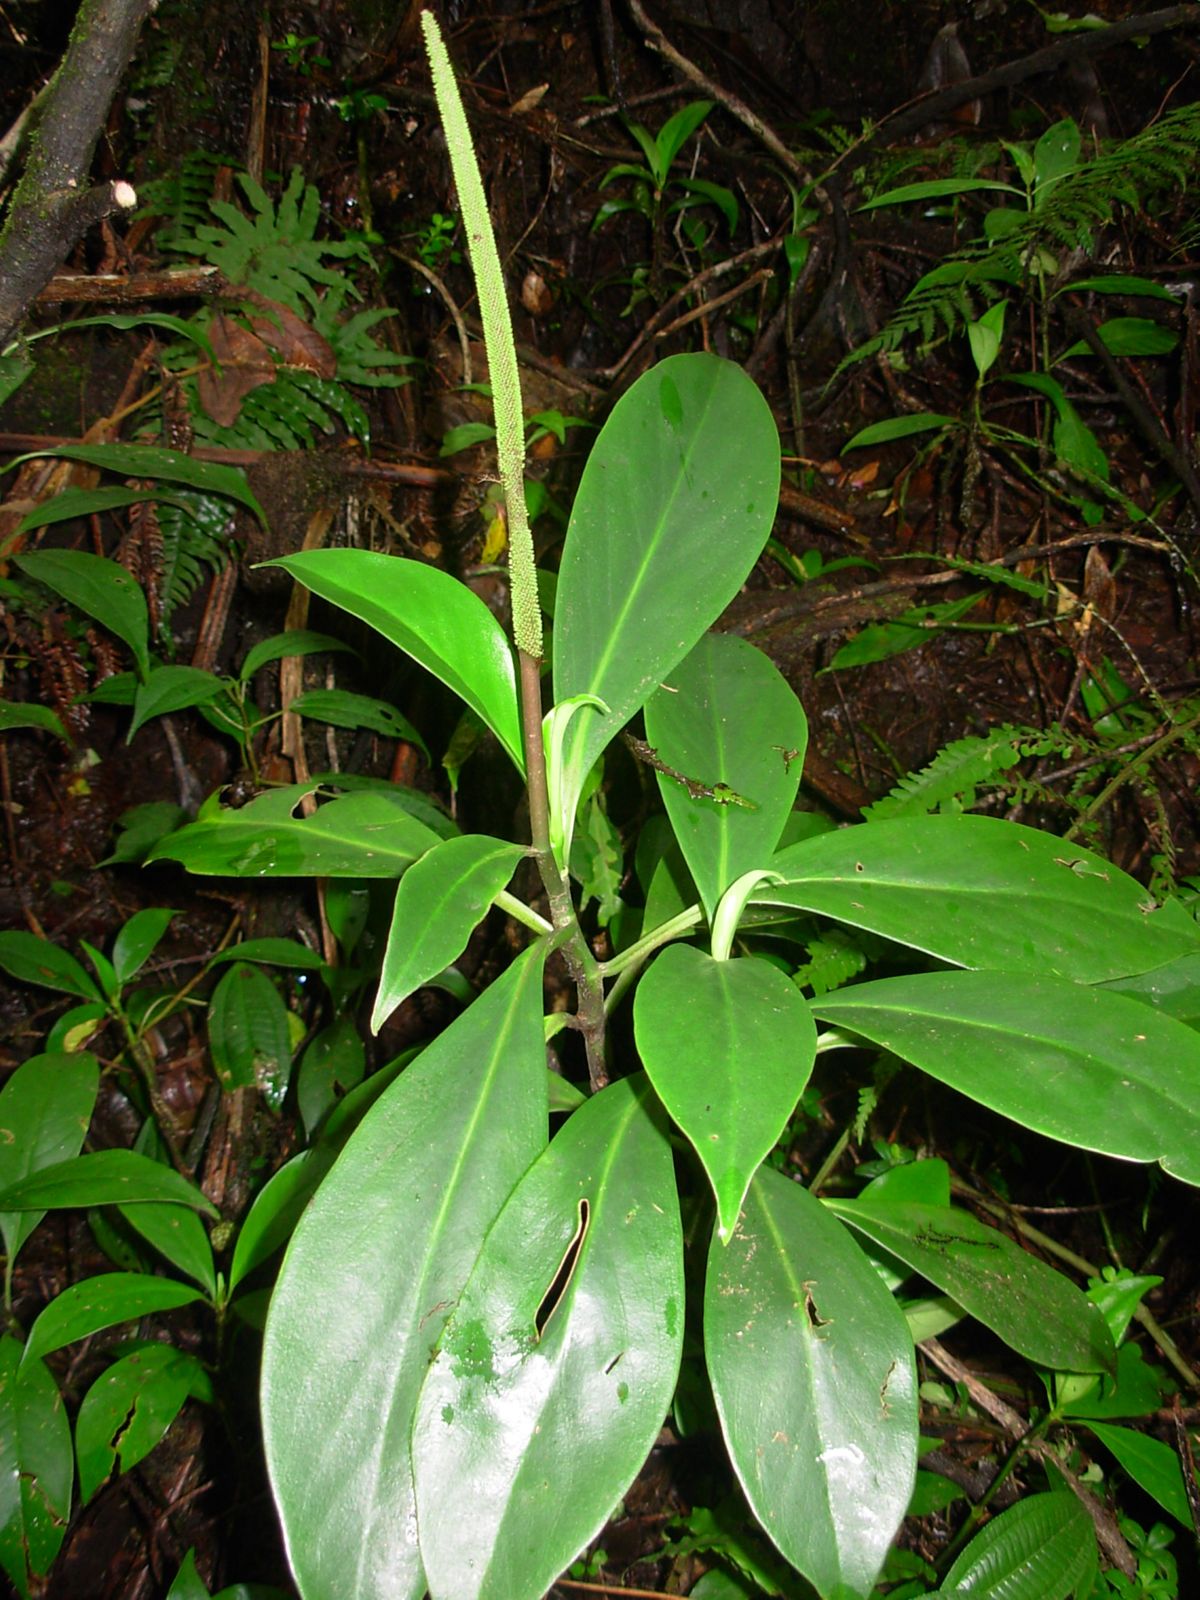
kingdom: Plantae
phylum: Tracheophyta
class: Magnoliopsida
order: Piperales
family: Piperaceae
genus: Peperomia
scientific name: Peperomia acuminata
